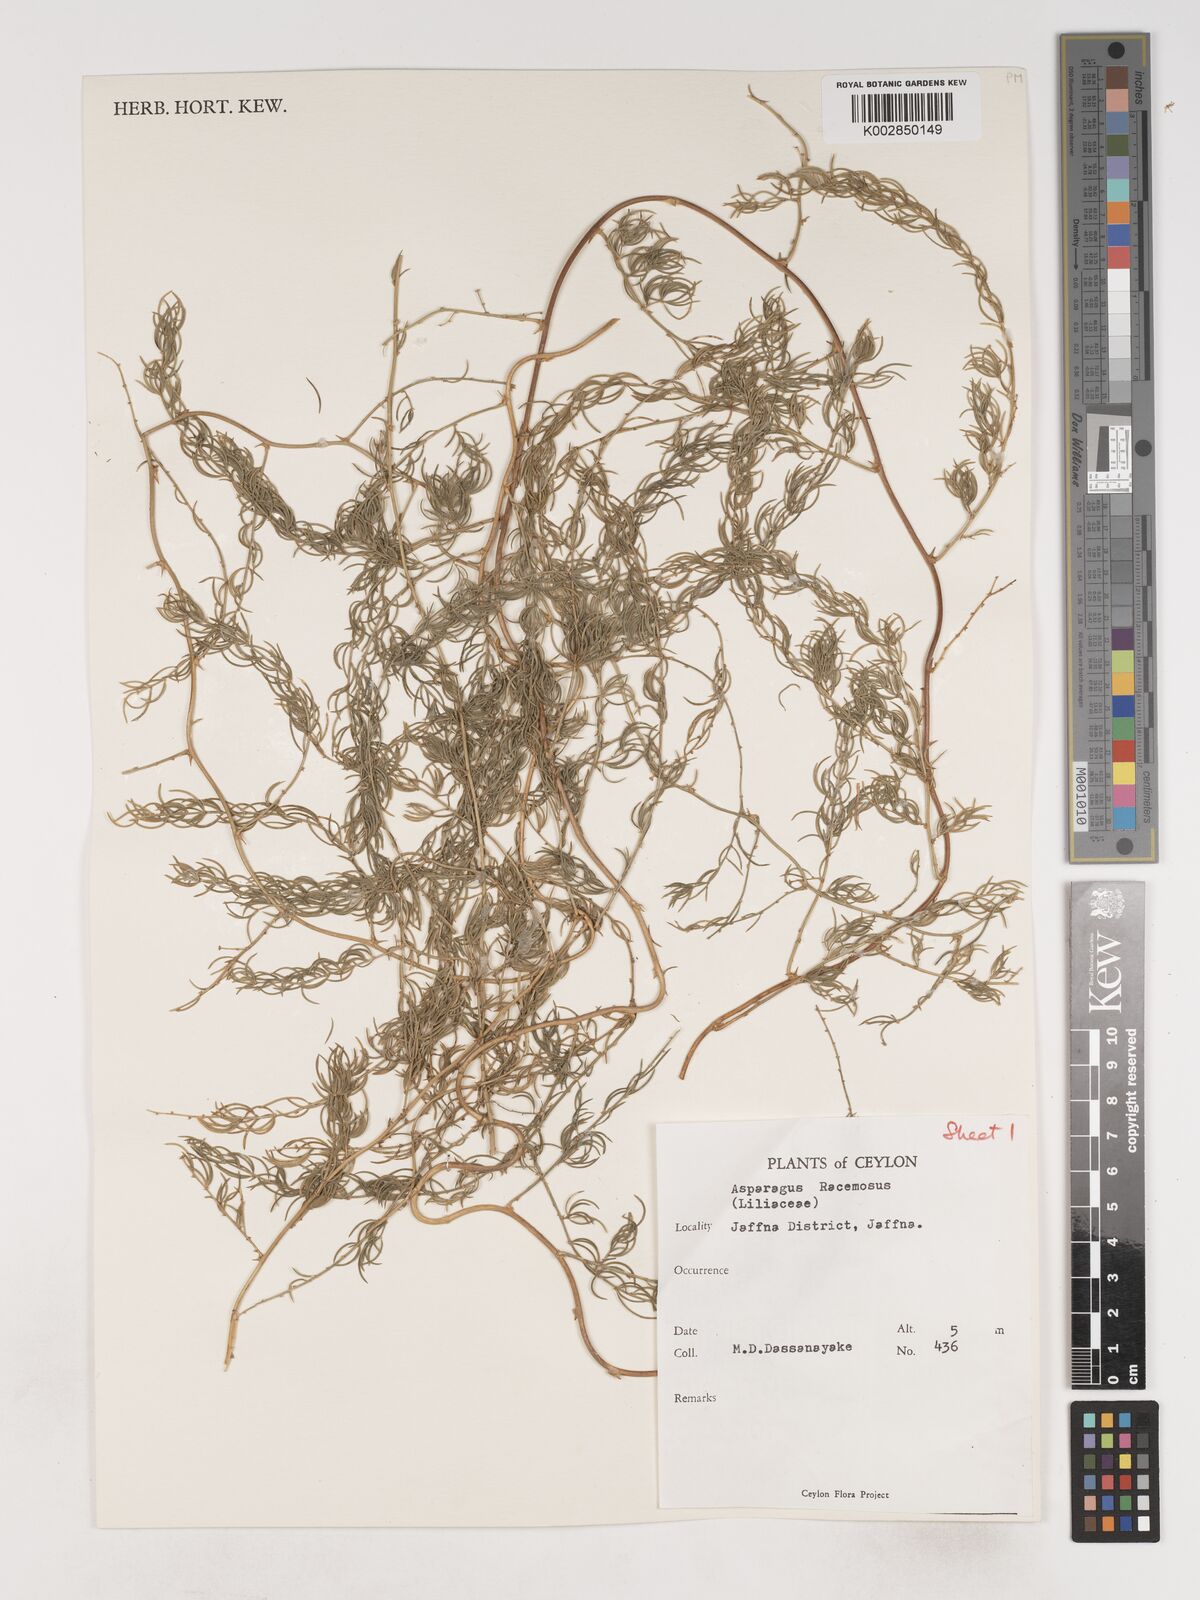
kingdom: Plantae
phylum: Tracheophyta
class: Liliopsida
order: Asparagales
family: Asparagaceae
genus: Asparagus
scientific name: Asparagus racemosus
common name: Asparagus-fern
